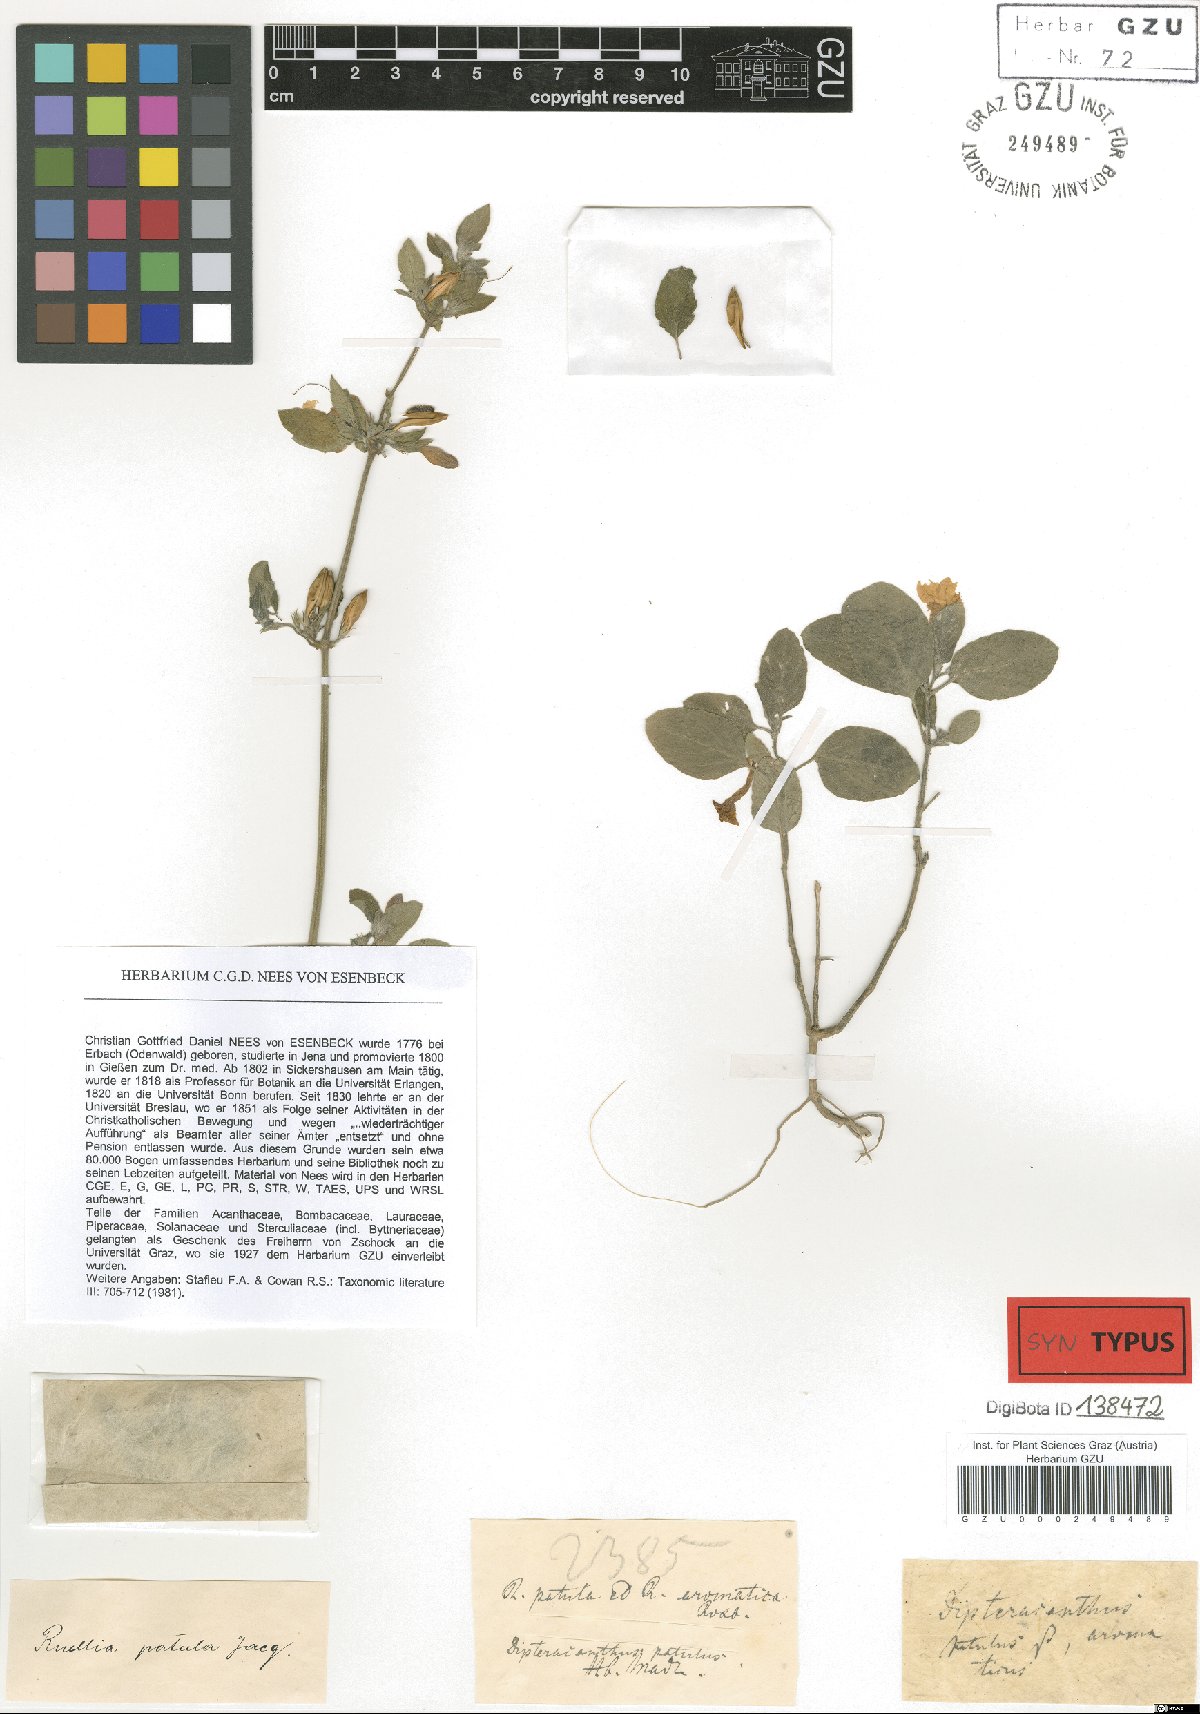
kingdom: Plantae
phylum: Tracheophyta
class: Magnoliopsida
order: Lamiales
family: Acanthaceae
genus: Ruellia
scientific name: Ruellia patula
